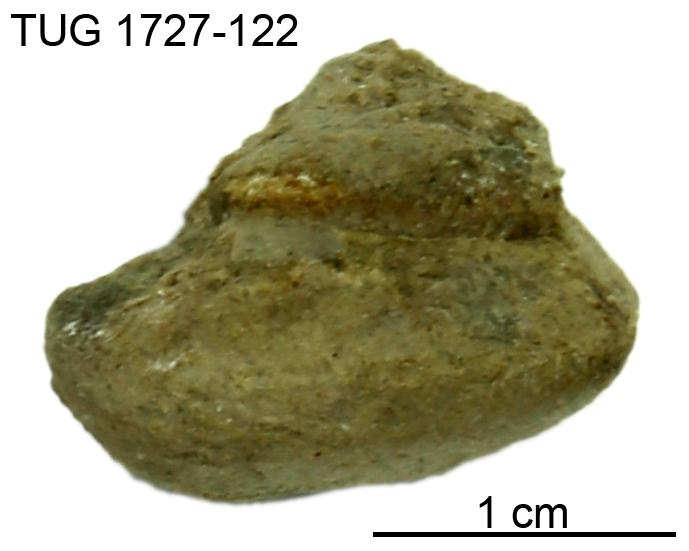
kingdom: Animalia
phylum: Mollusca
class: Gastropoda
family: Lophospiridae
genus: Lophospira
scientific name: Lophospira
